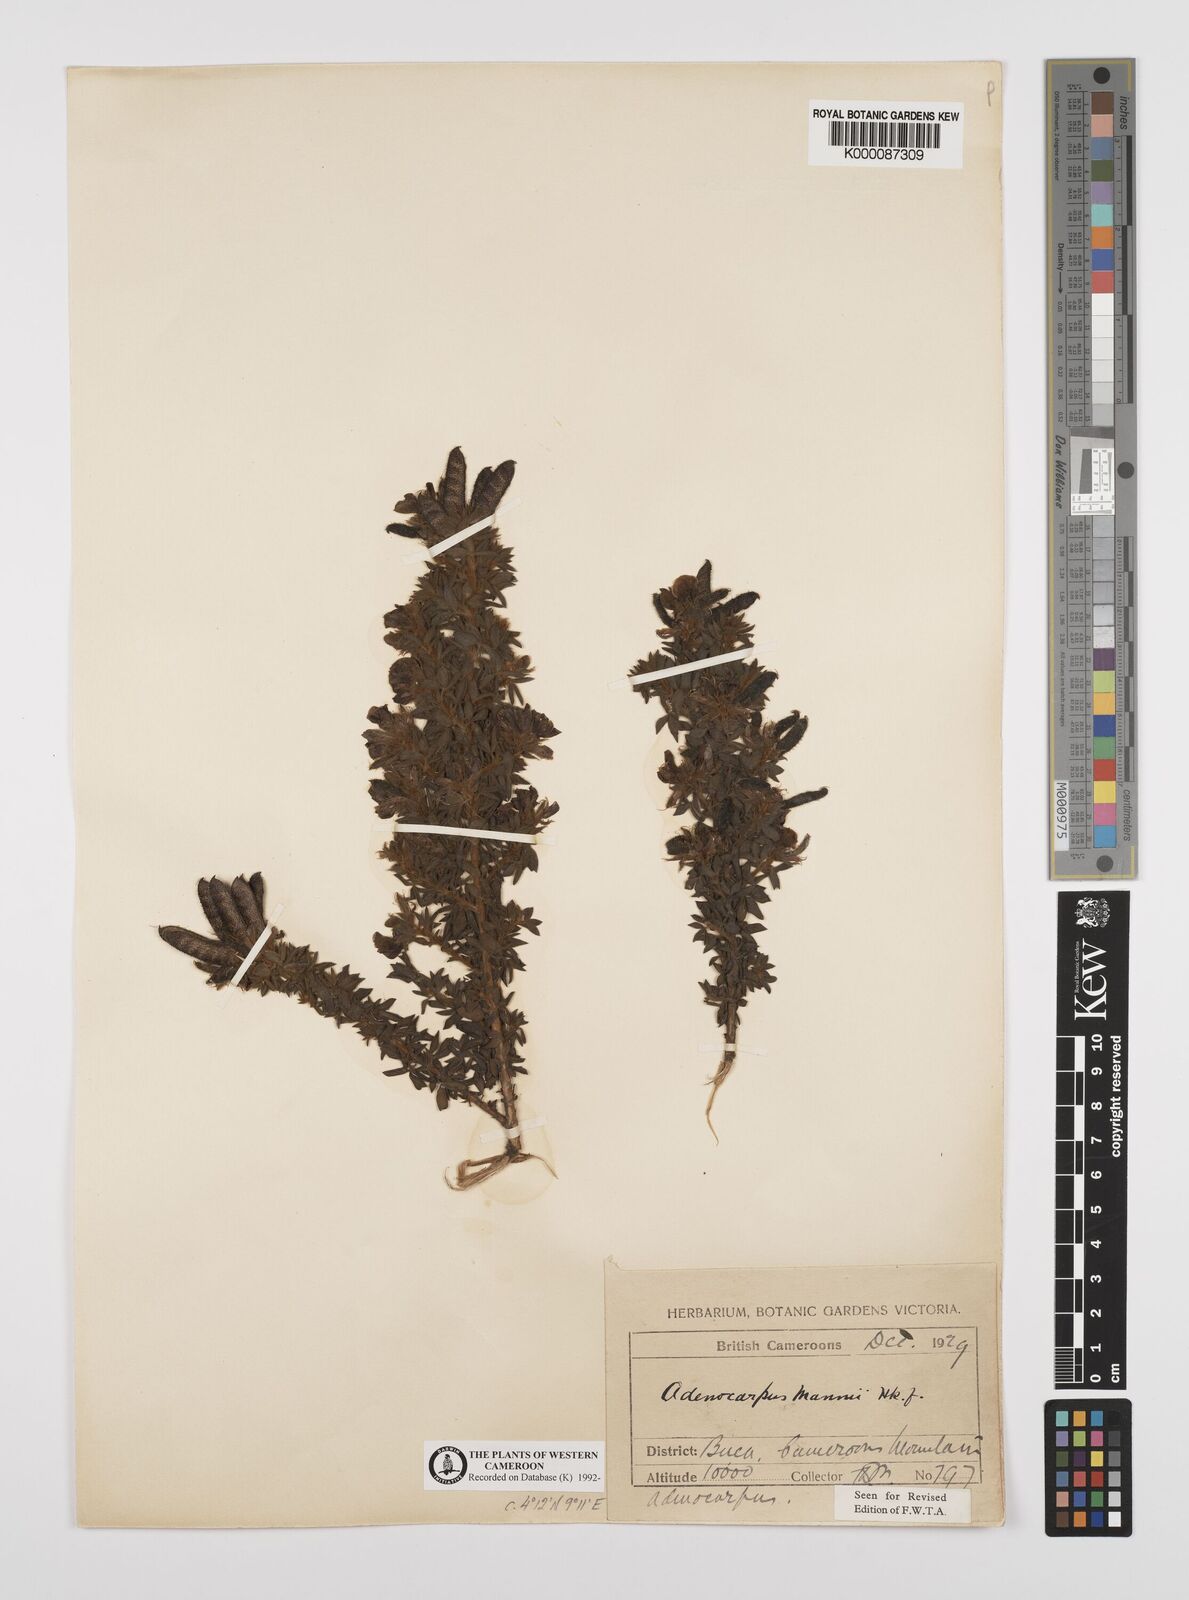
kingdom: Plantae
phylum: Tracheophyta
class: Magnoliopsida
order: Fabales
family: Fabaceae
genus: Adenocarpus
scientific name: Adenocarpus mannii
